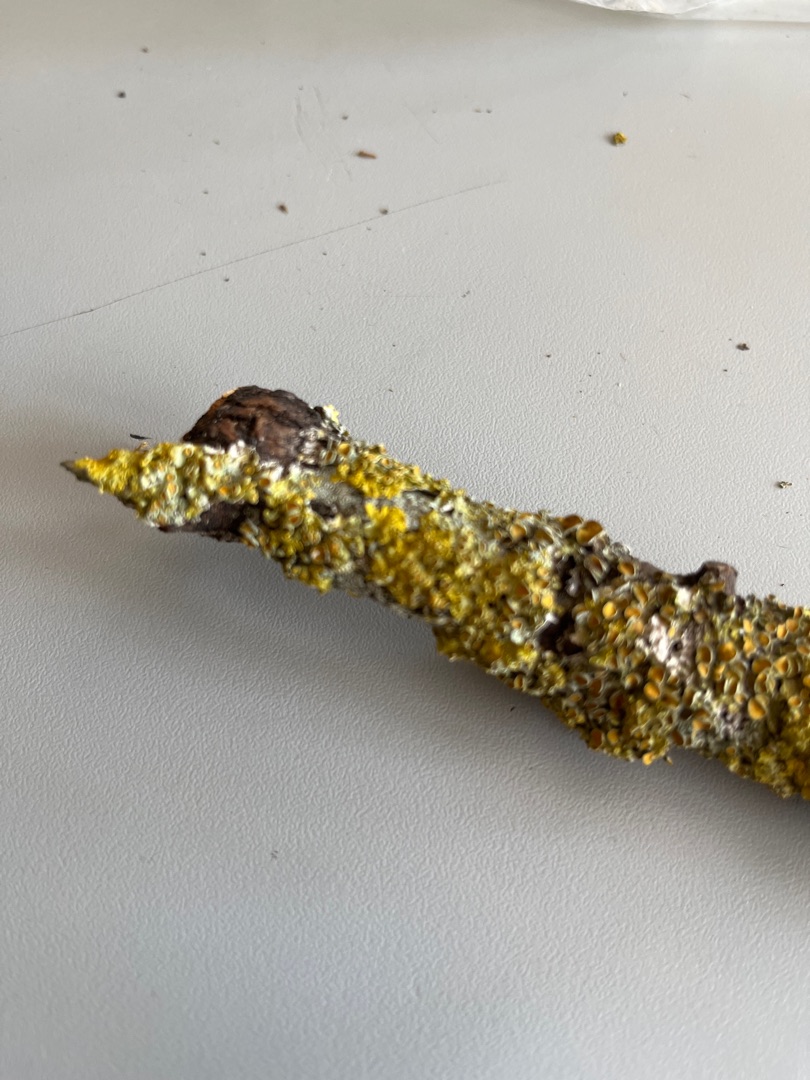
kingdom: Fungi
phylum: Ascomycota
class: Lecanoromycetes
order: Teloschistales
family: Teloschistaceae
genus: Xanthoria
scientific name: Xanthoria parietina
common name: Almindelig væggelav
